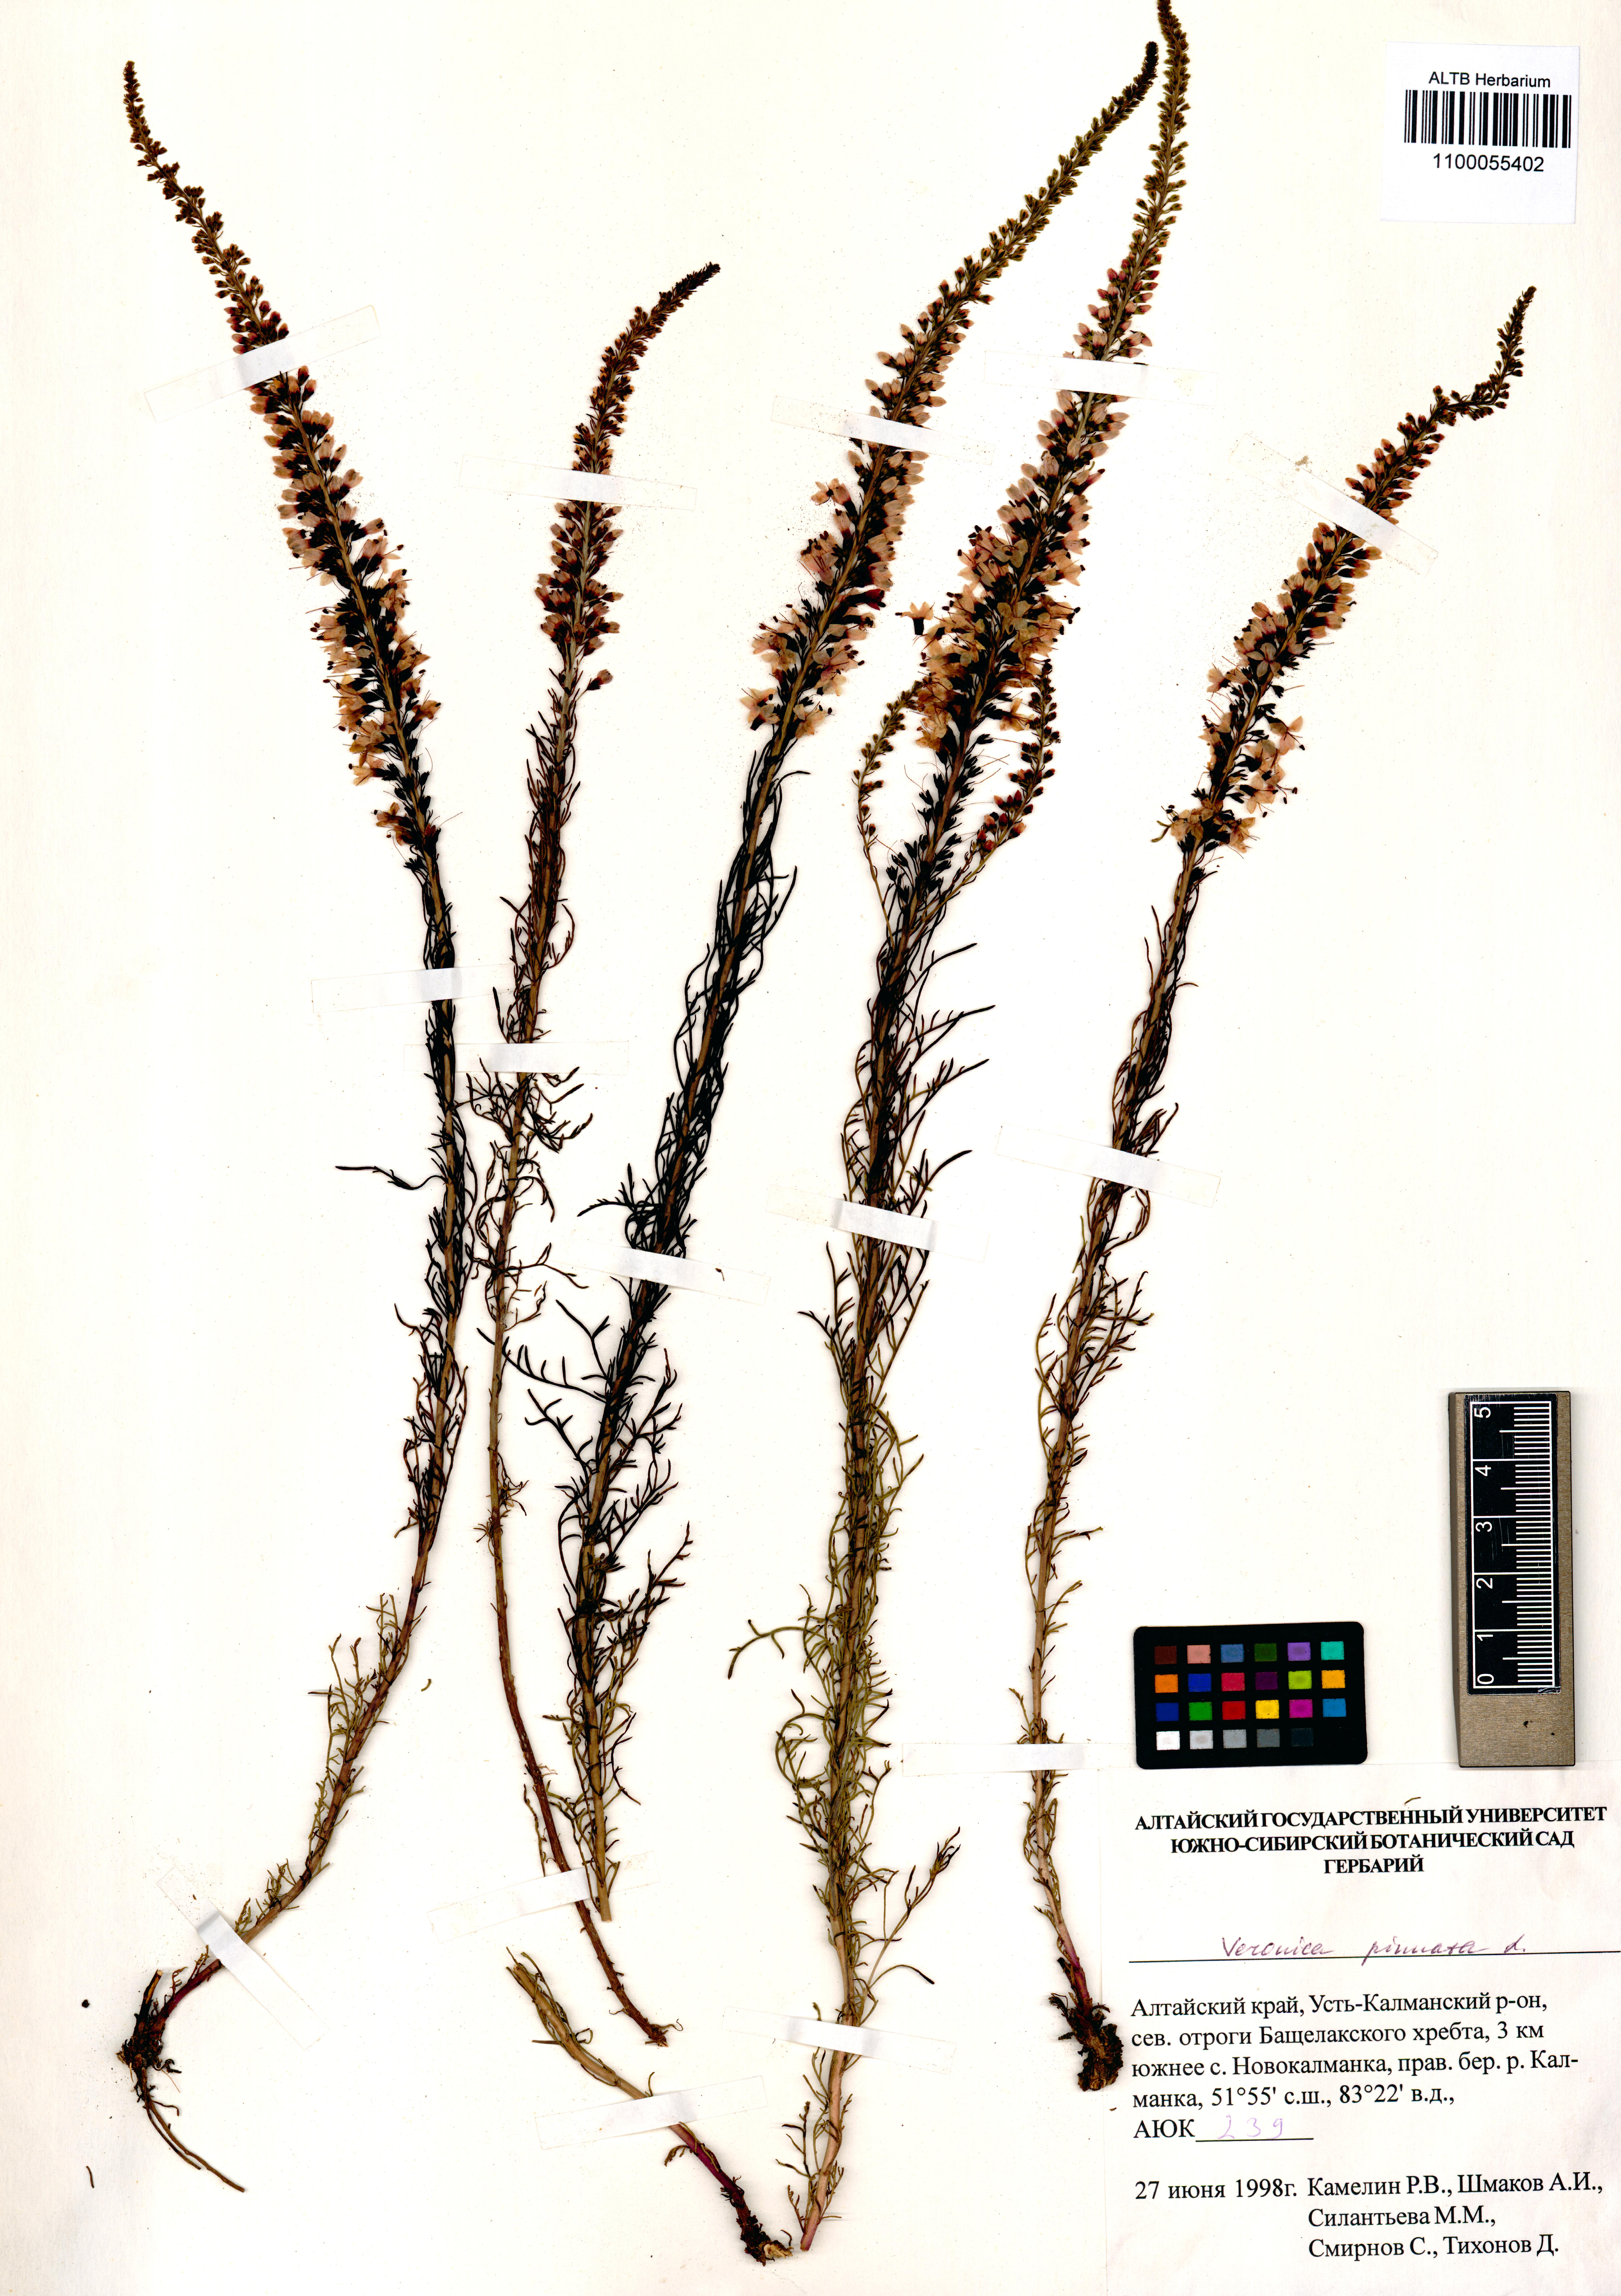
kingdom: Plantae
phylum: Tracheophyta
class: Magnoliopsida
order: Lamiales
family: Plantaginaceae
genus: Veronica
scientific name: Veronica pinnata
